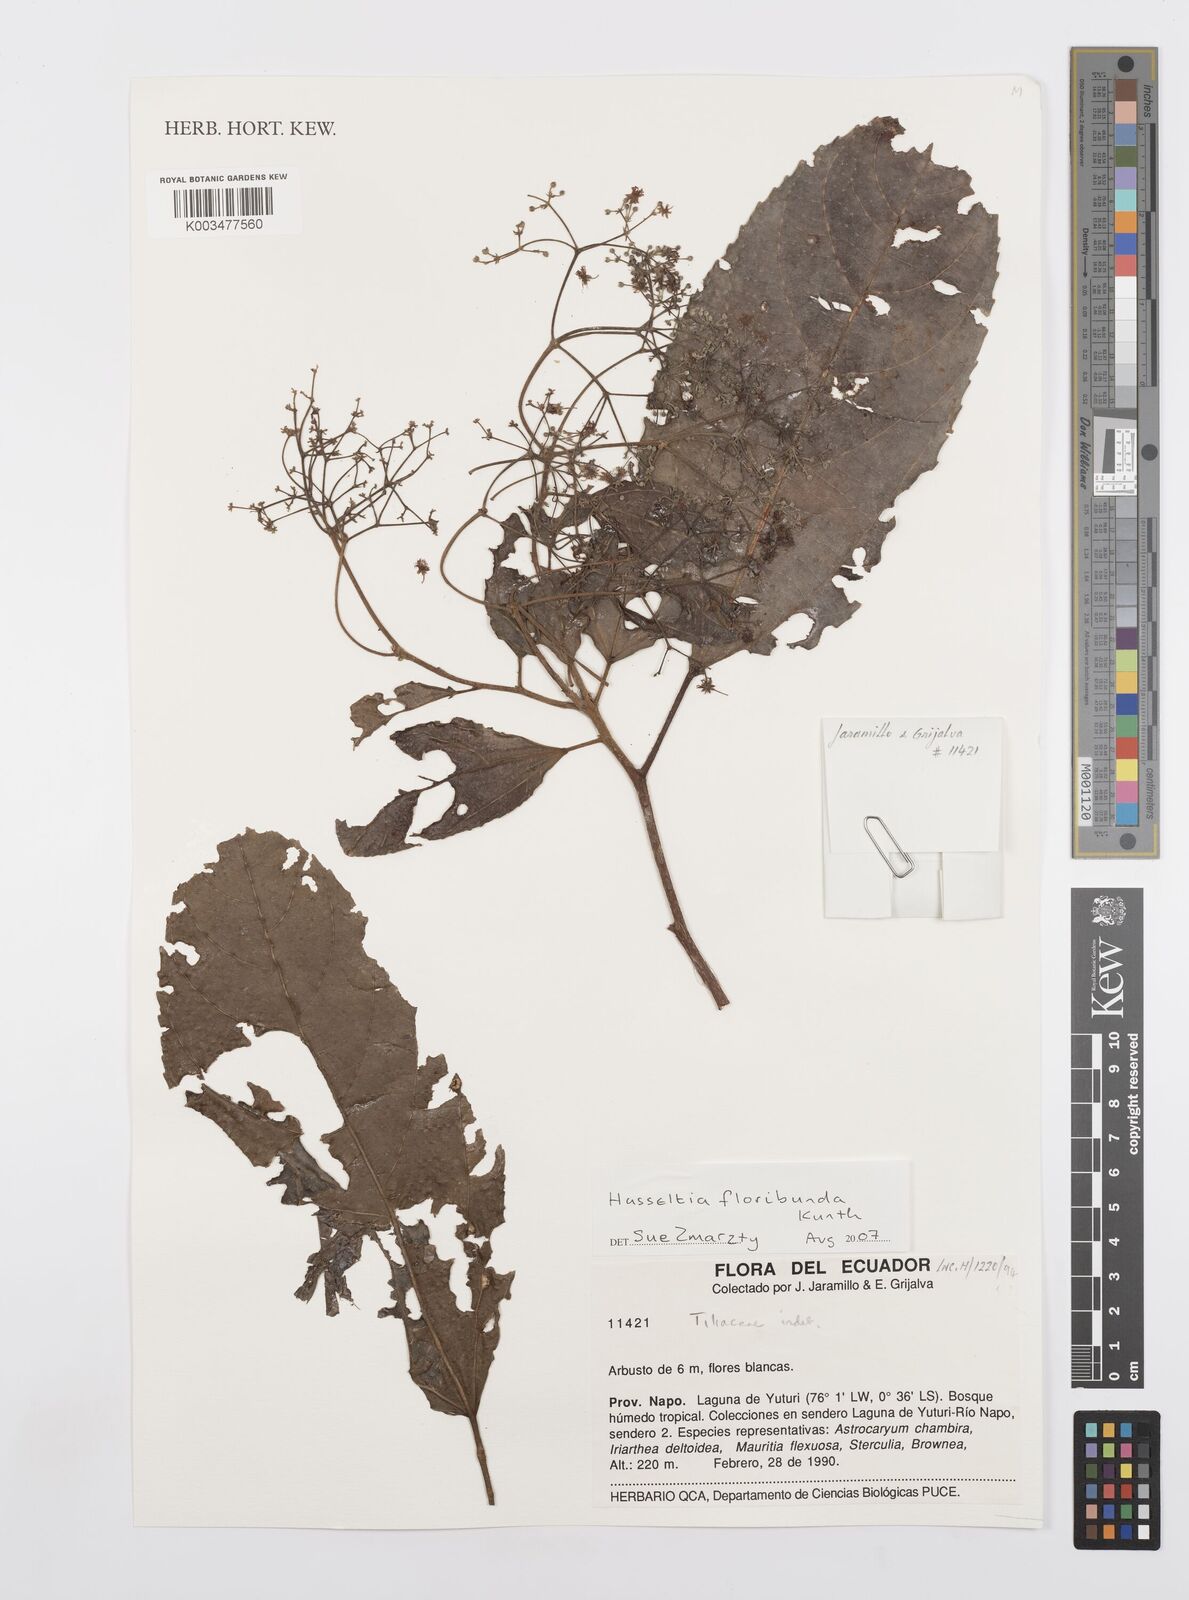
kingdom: Plantae
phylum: Tracheophyta
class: Magnoliopsida
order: Malpighiales
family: Salicaceae
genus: Hasseltia
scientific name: Hasseltia floribunda
